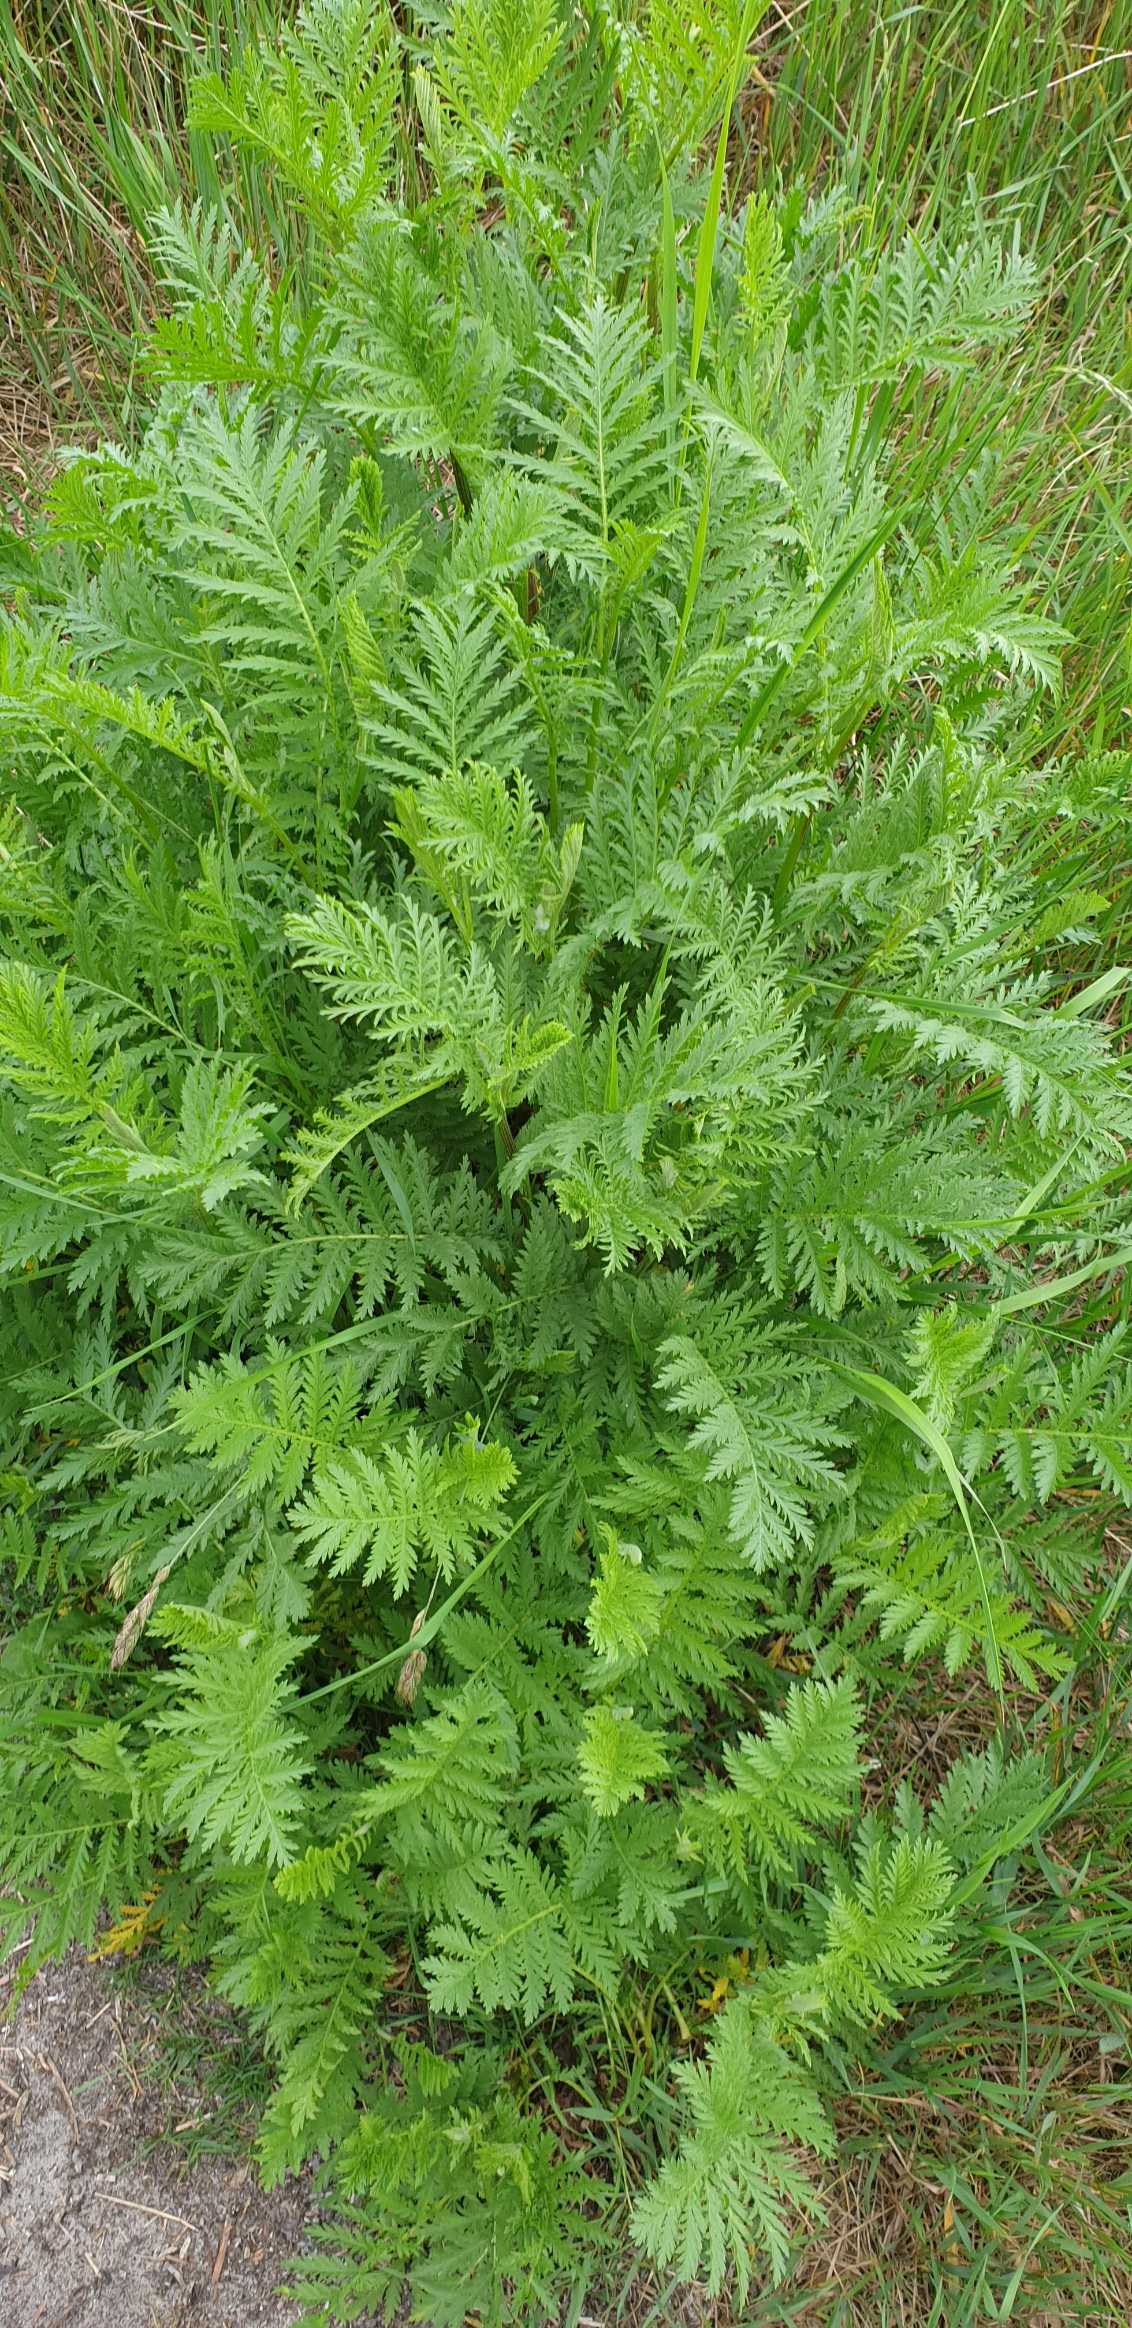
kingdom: Plantae
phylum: Tracheophyta
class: Magnoliopsida
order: Asterales
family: Asteraceae
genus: Tanacetum
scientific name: Tanacetum vulgare
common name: Rejnfan
